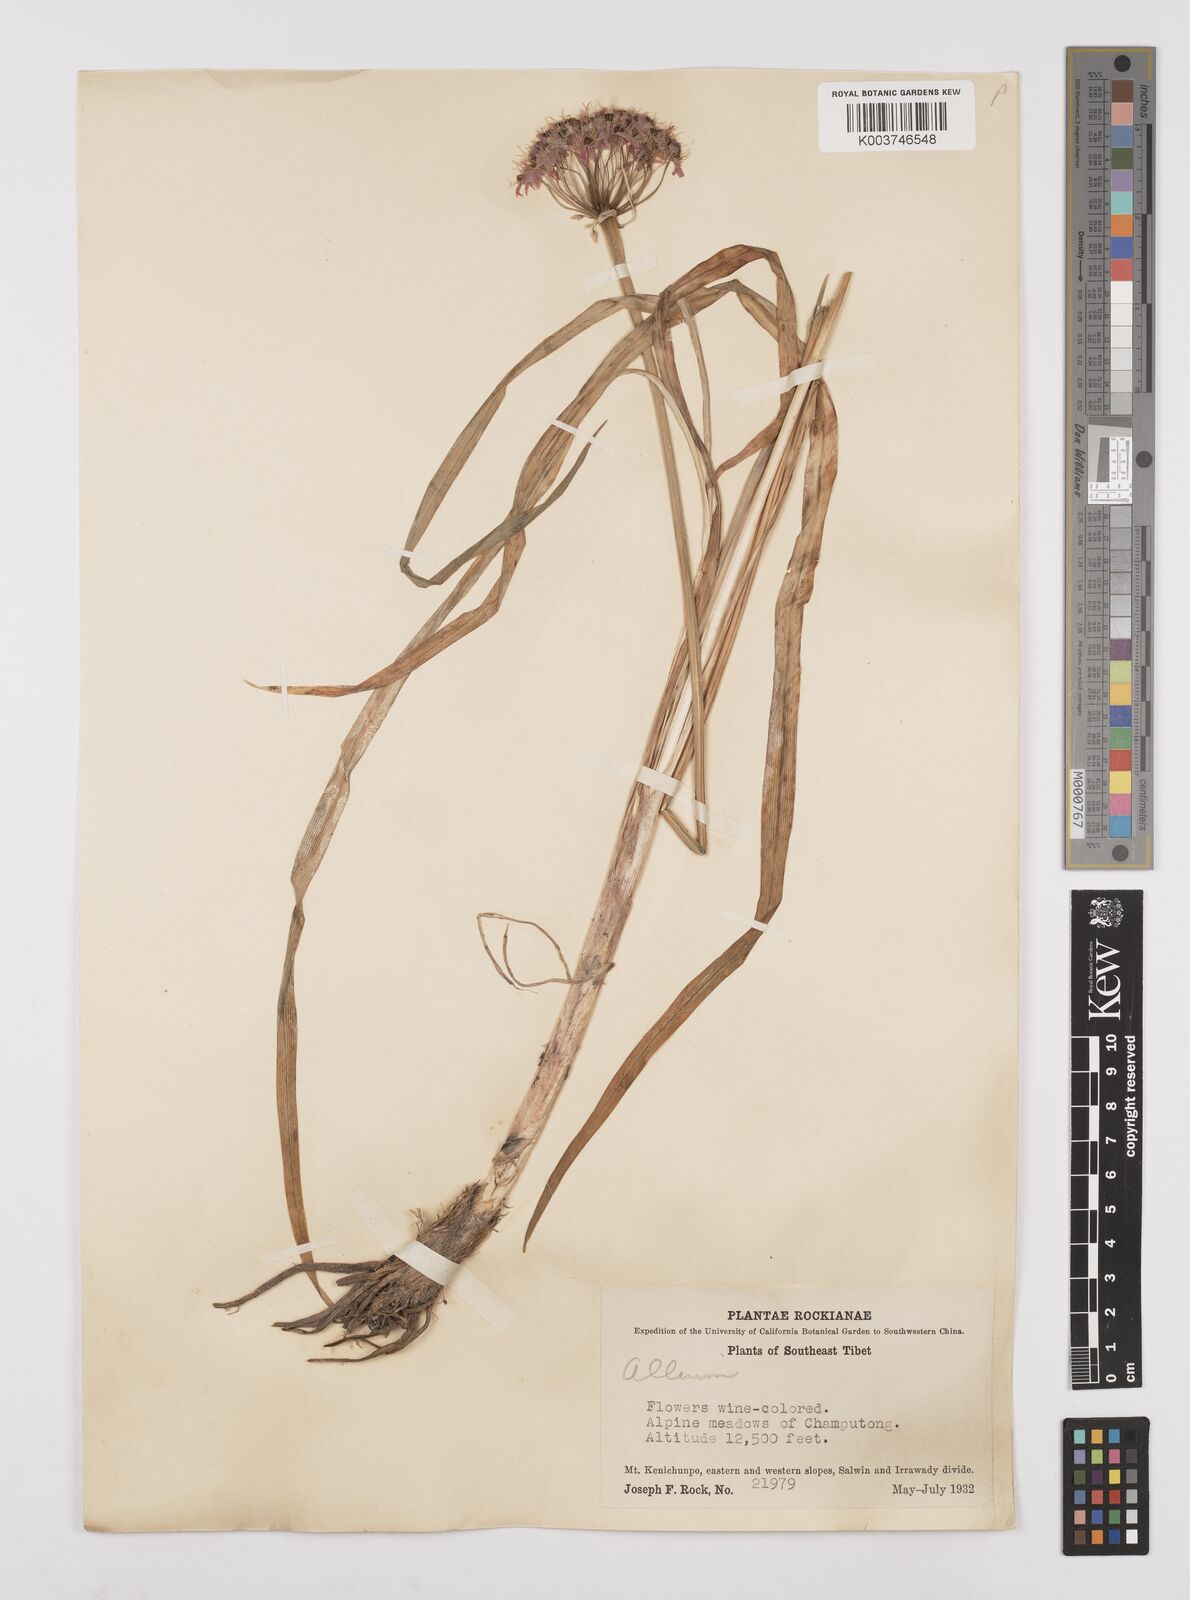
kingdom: Plantae
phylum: Tracheophyta
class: Liliopsida
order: Asparagales
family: Amaryllidaceae
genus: Allium
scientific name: Allium wallichii
